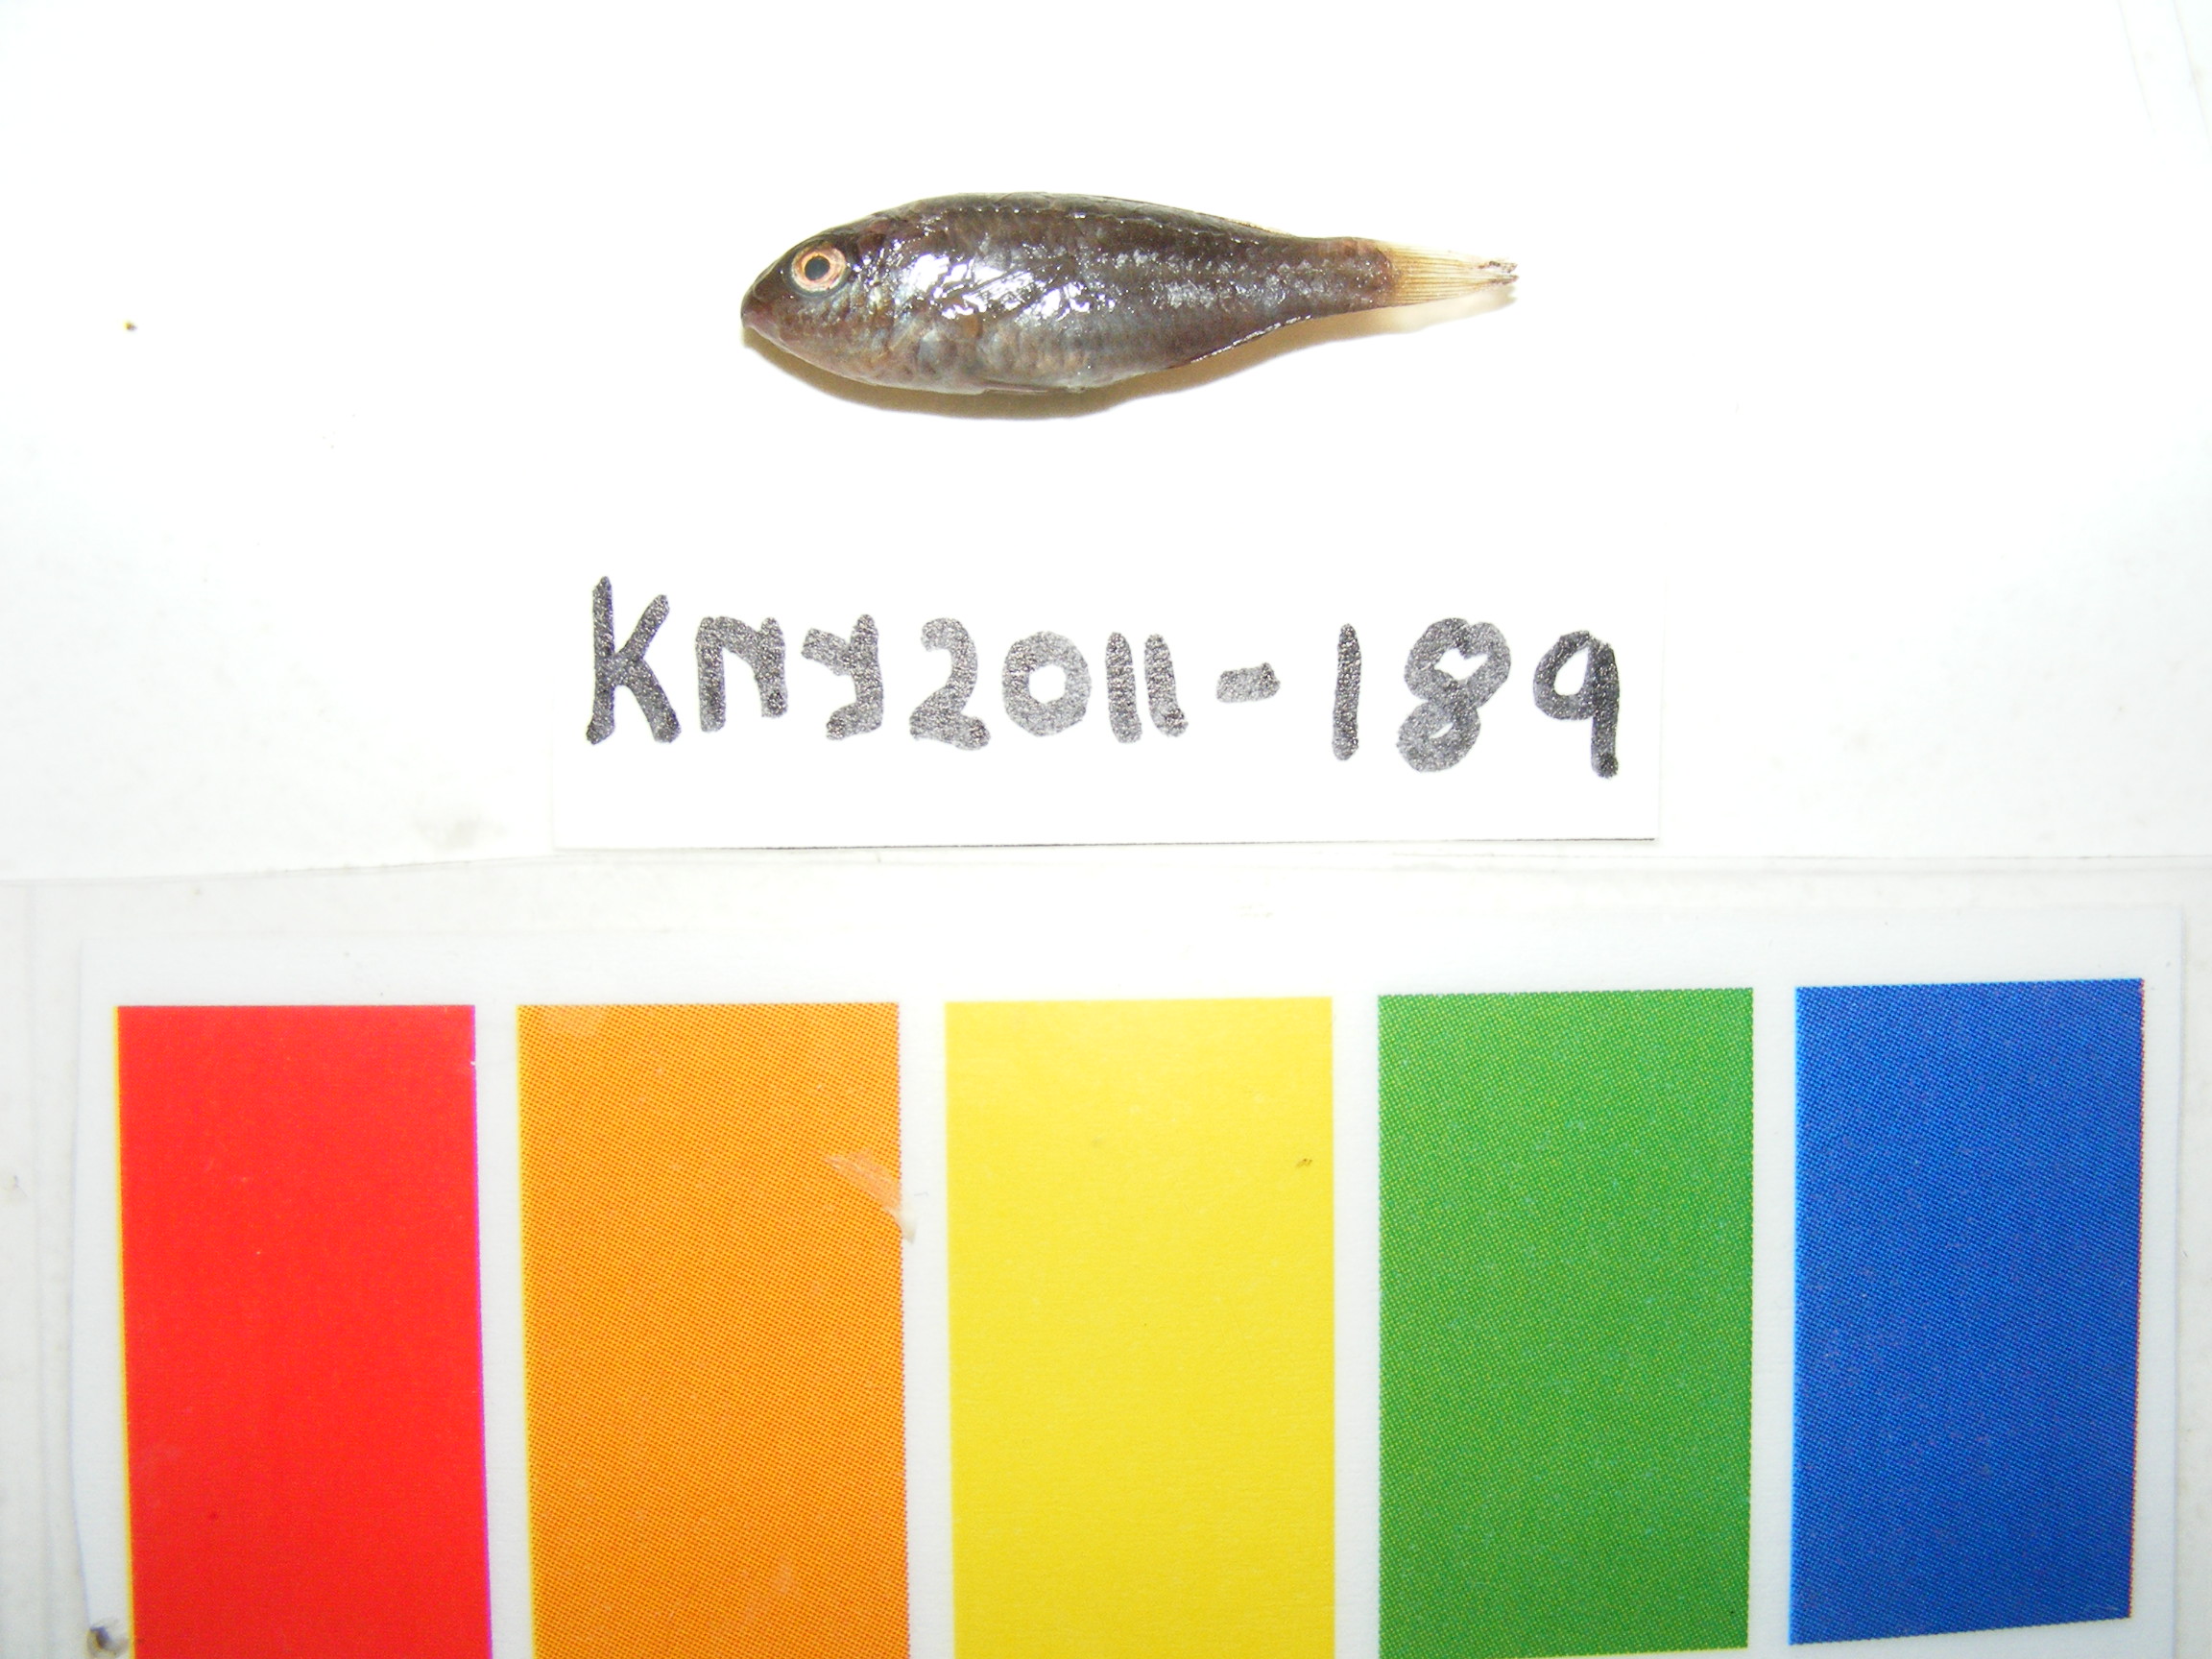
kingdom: Animalia
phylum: Chordata
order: Perciformes
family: Scaridae
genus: Scarus
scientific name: Scarus globiceps
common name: Globehead parrotfish
